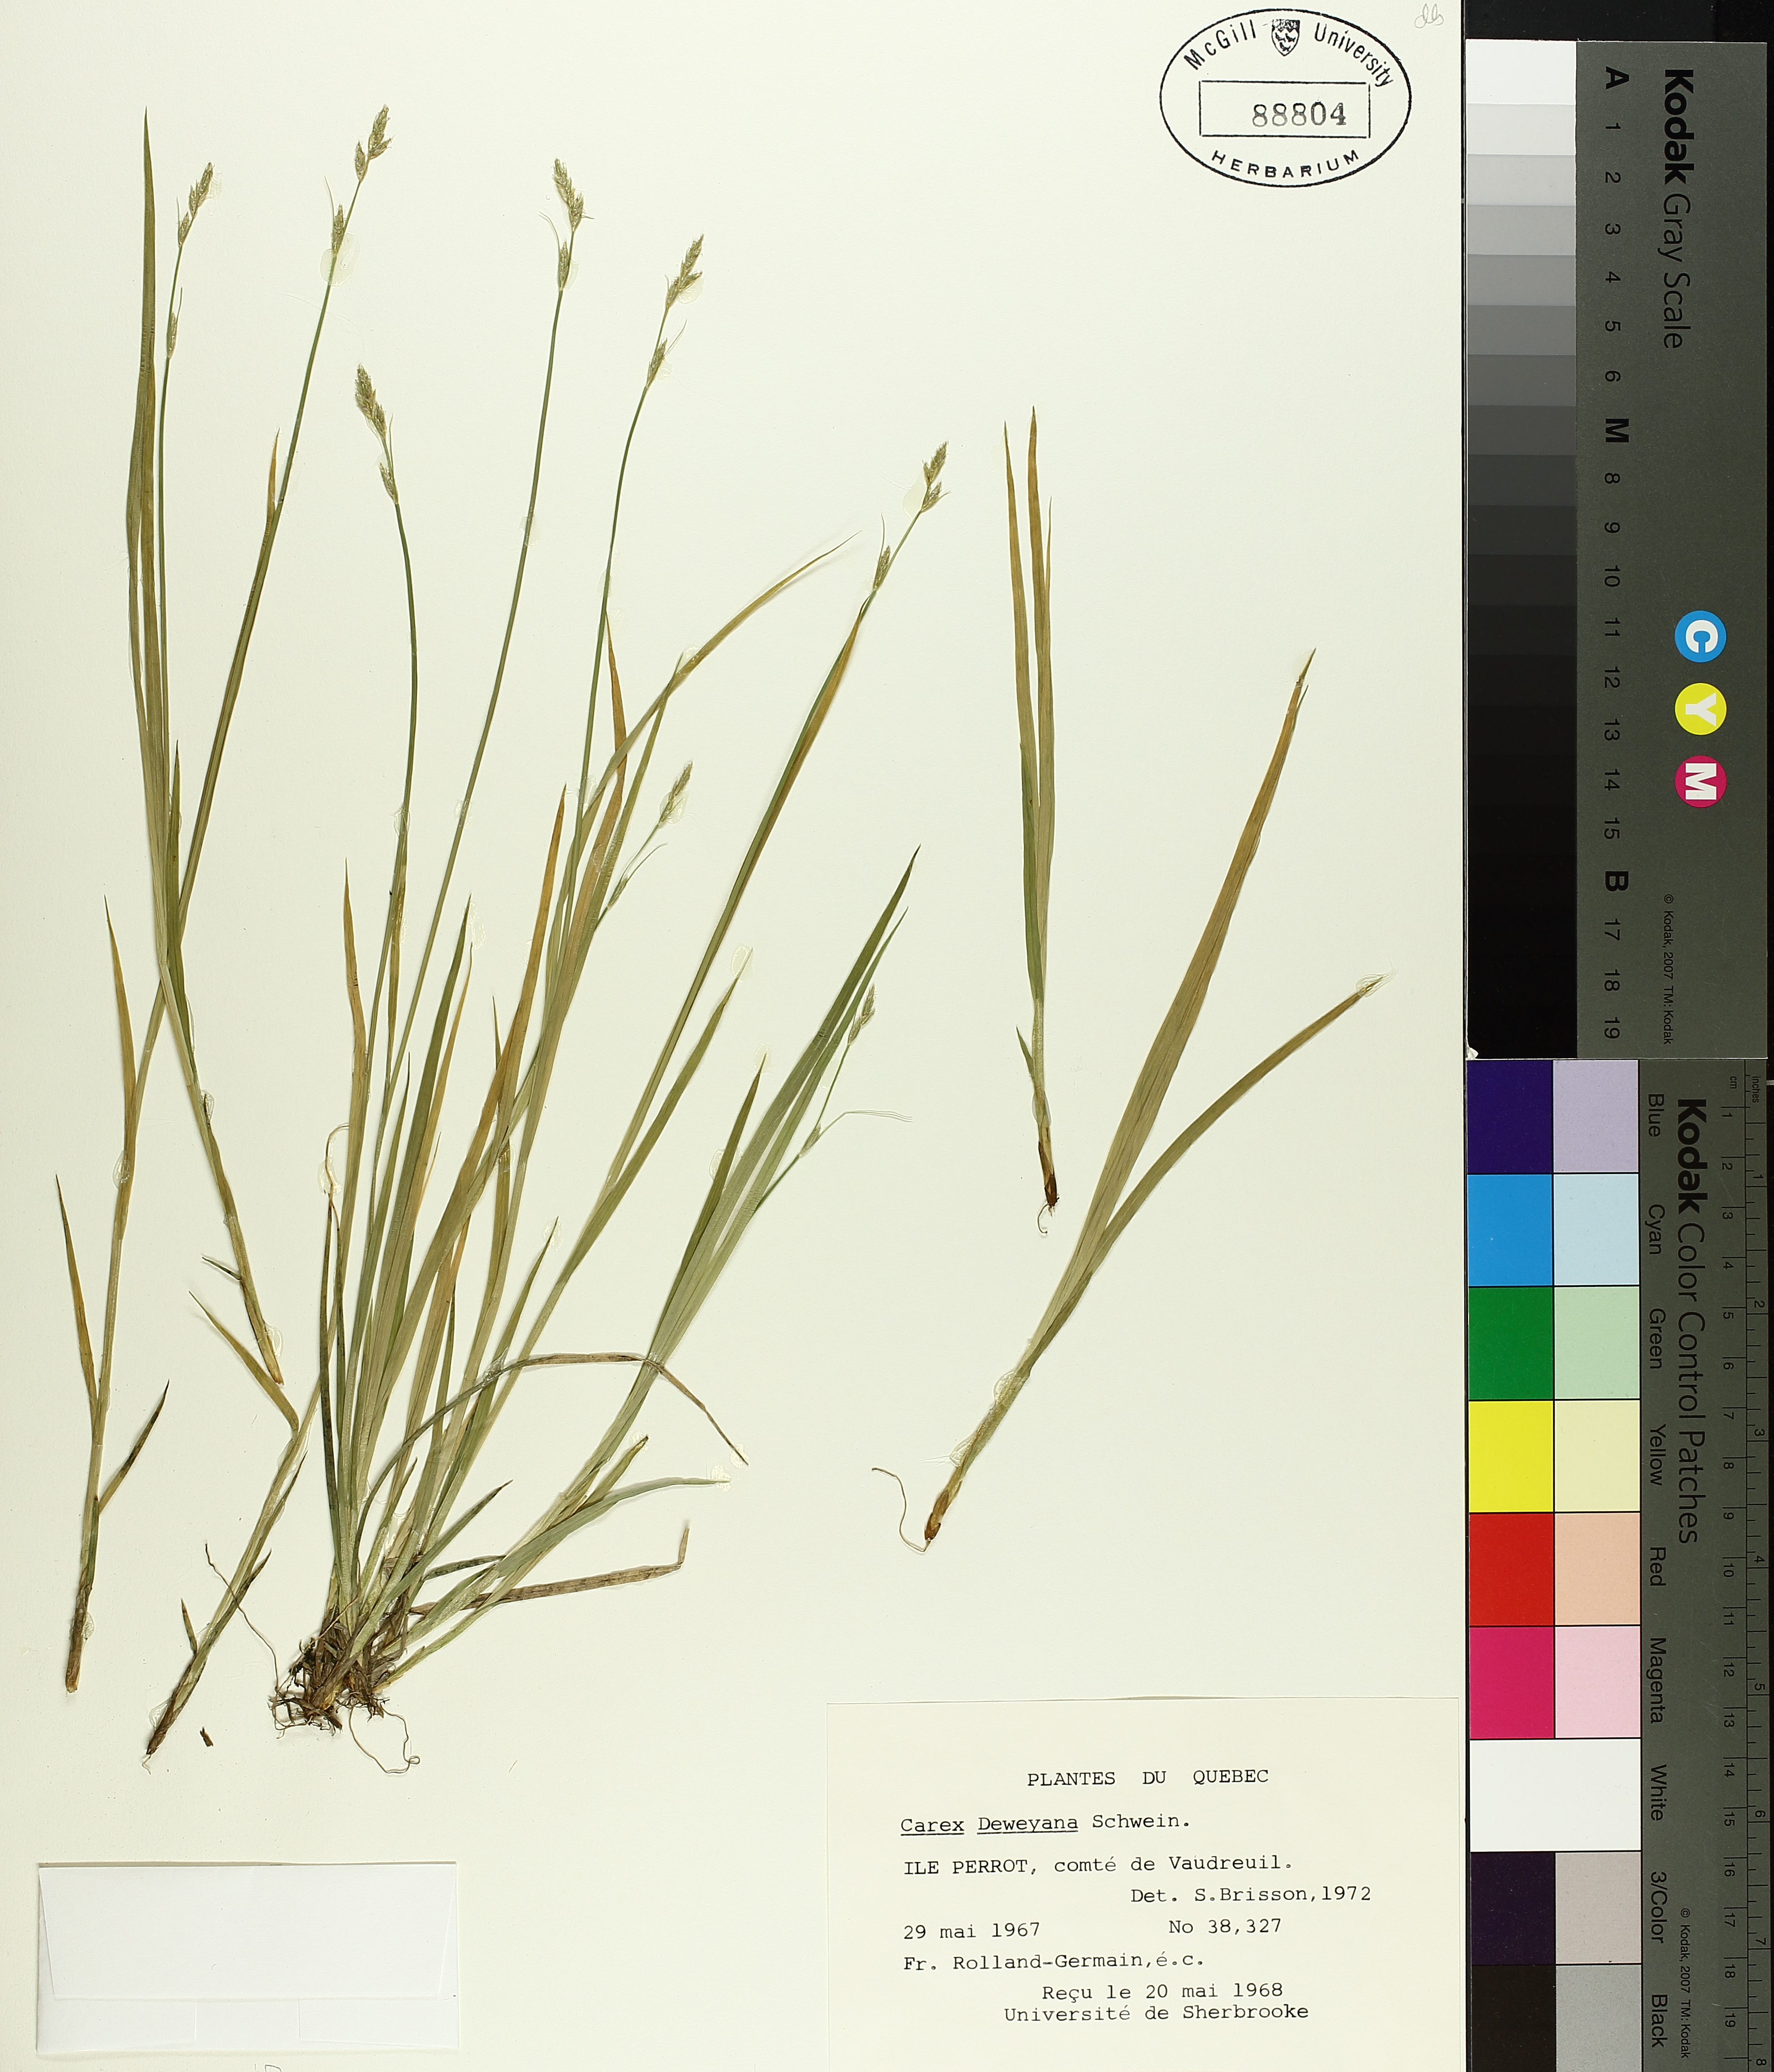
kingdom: Plantae
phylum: Tracheophyta
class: Liliopsida
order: Poales
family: Cyperaceae
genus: Carex
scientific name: Carex deweyana
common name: Dewey's sedge
